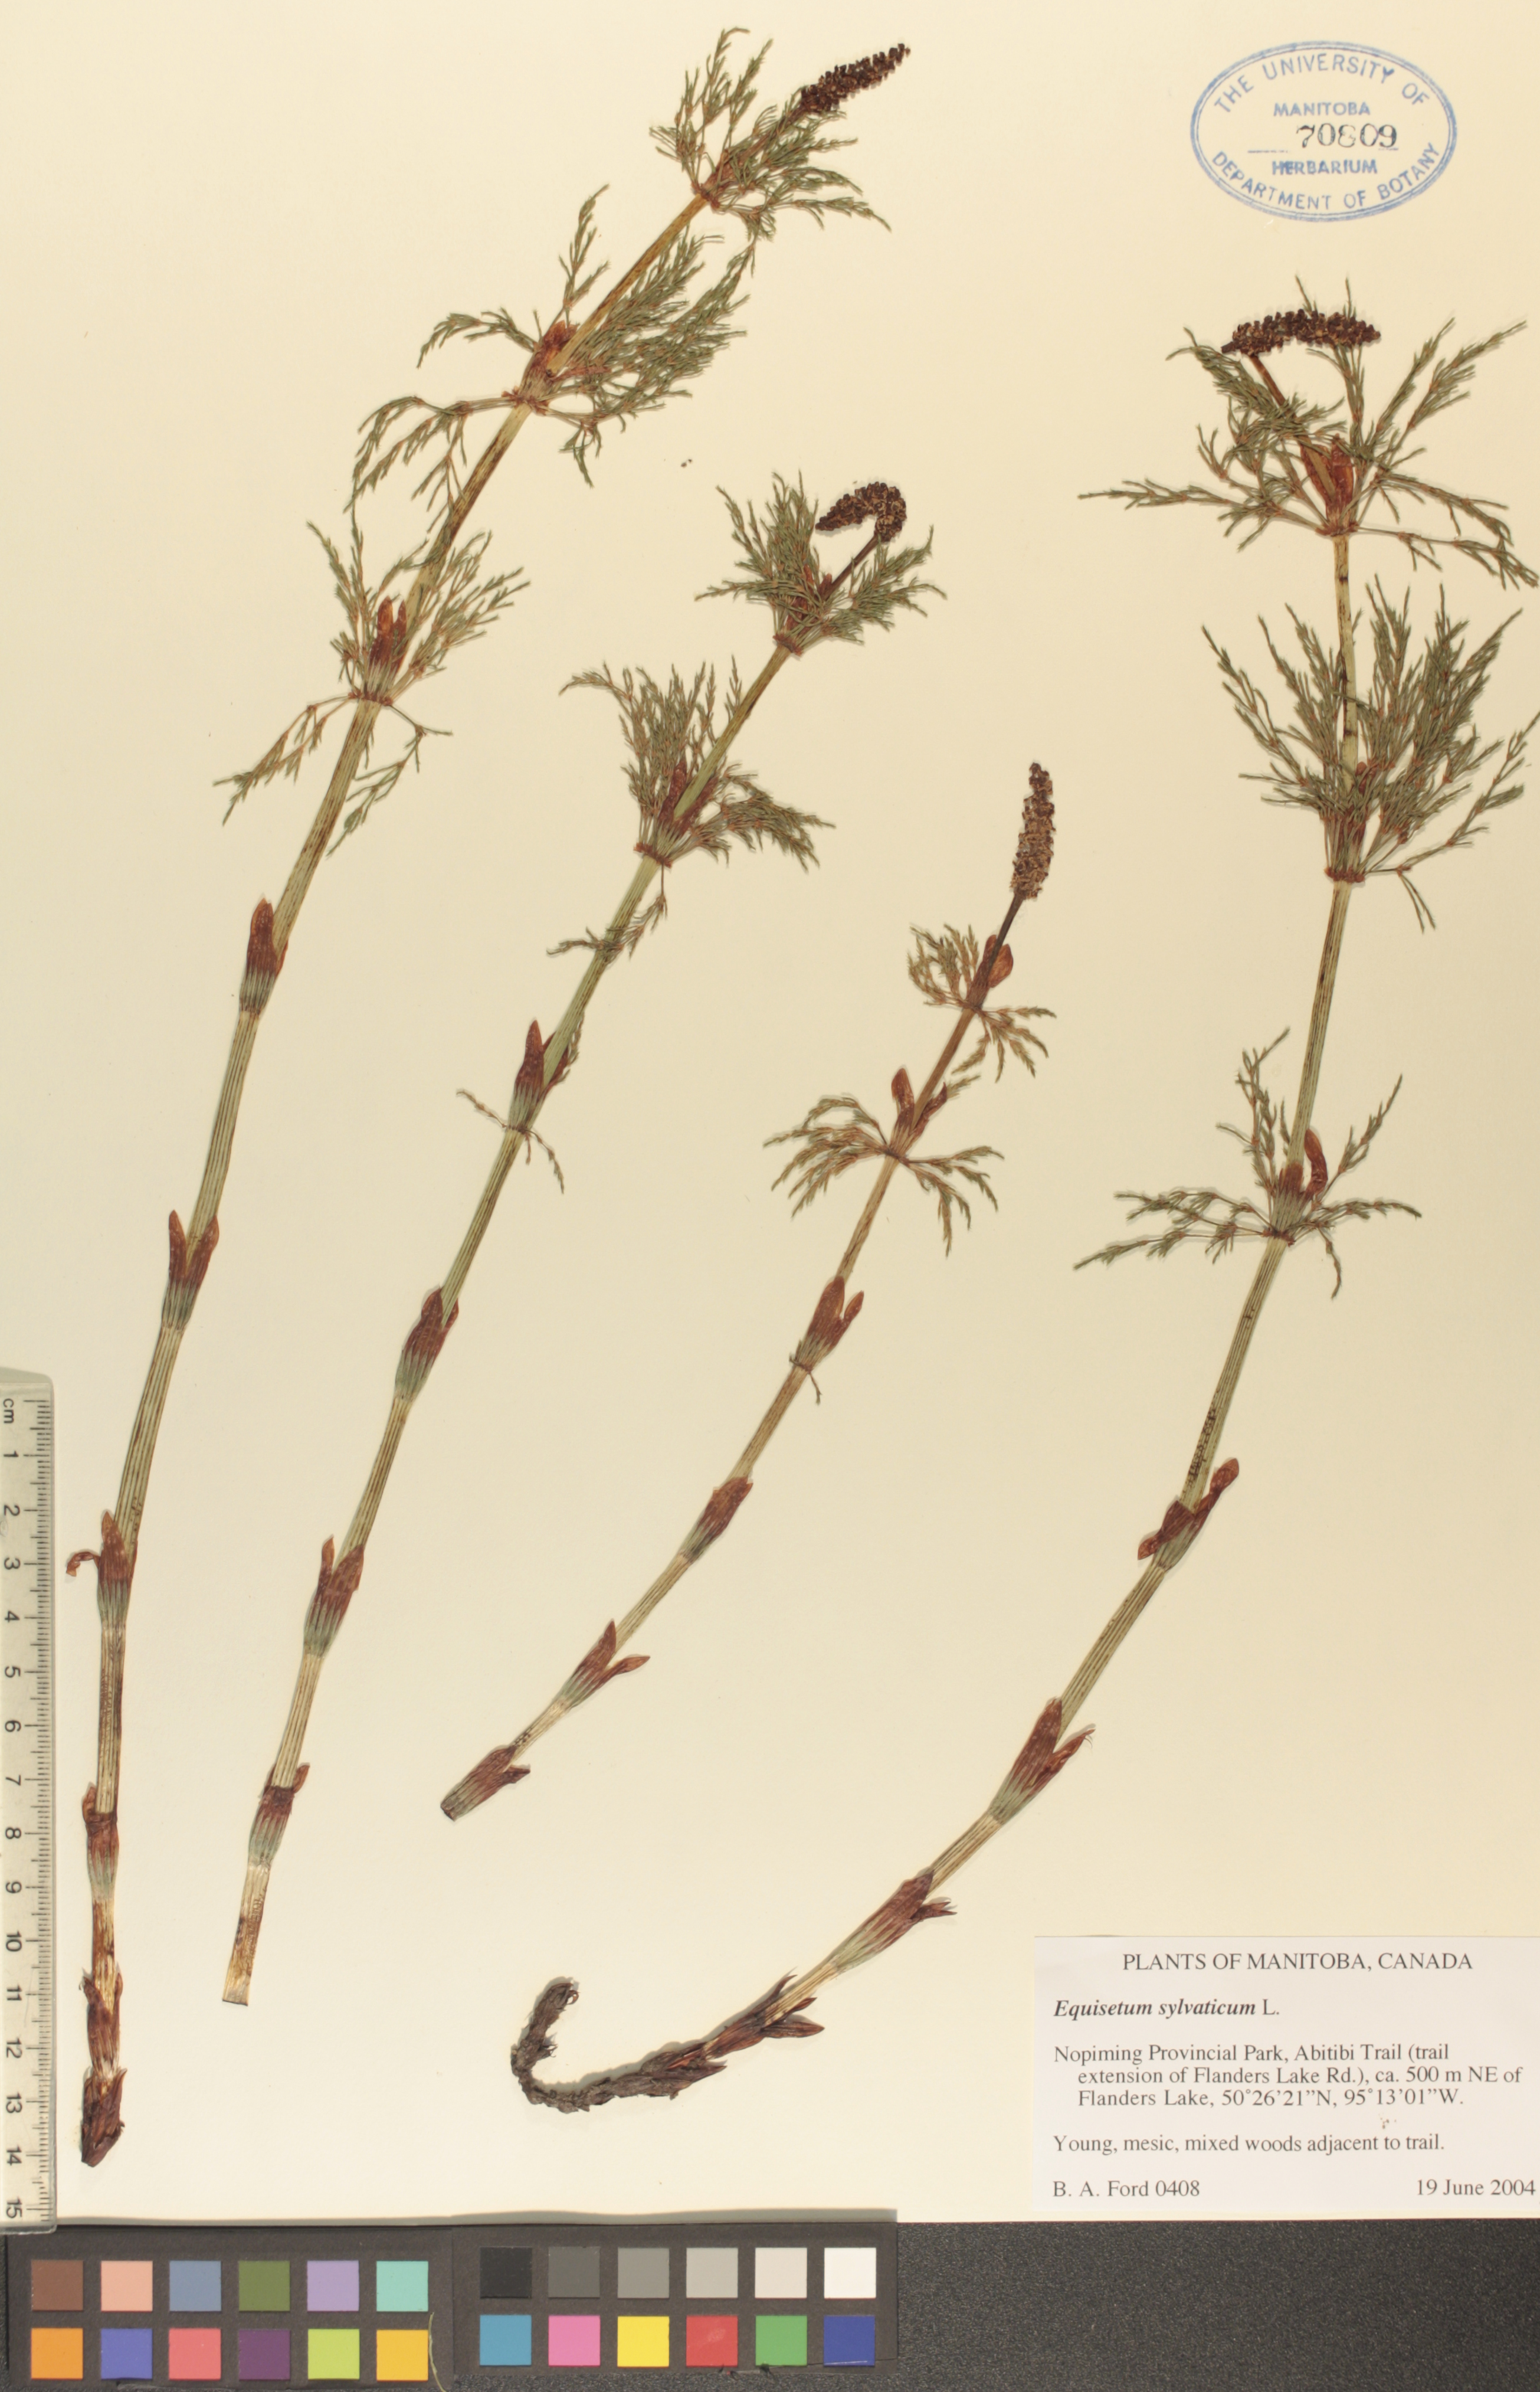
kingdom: Plantae
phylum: Tracheophyta
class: Polypodiopsida
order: Equisetales
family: Equisetaceae
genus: Equisetum
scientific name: Equisetum sylvaticum
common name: Wood horsetail
